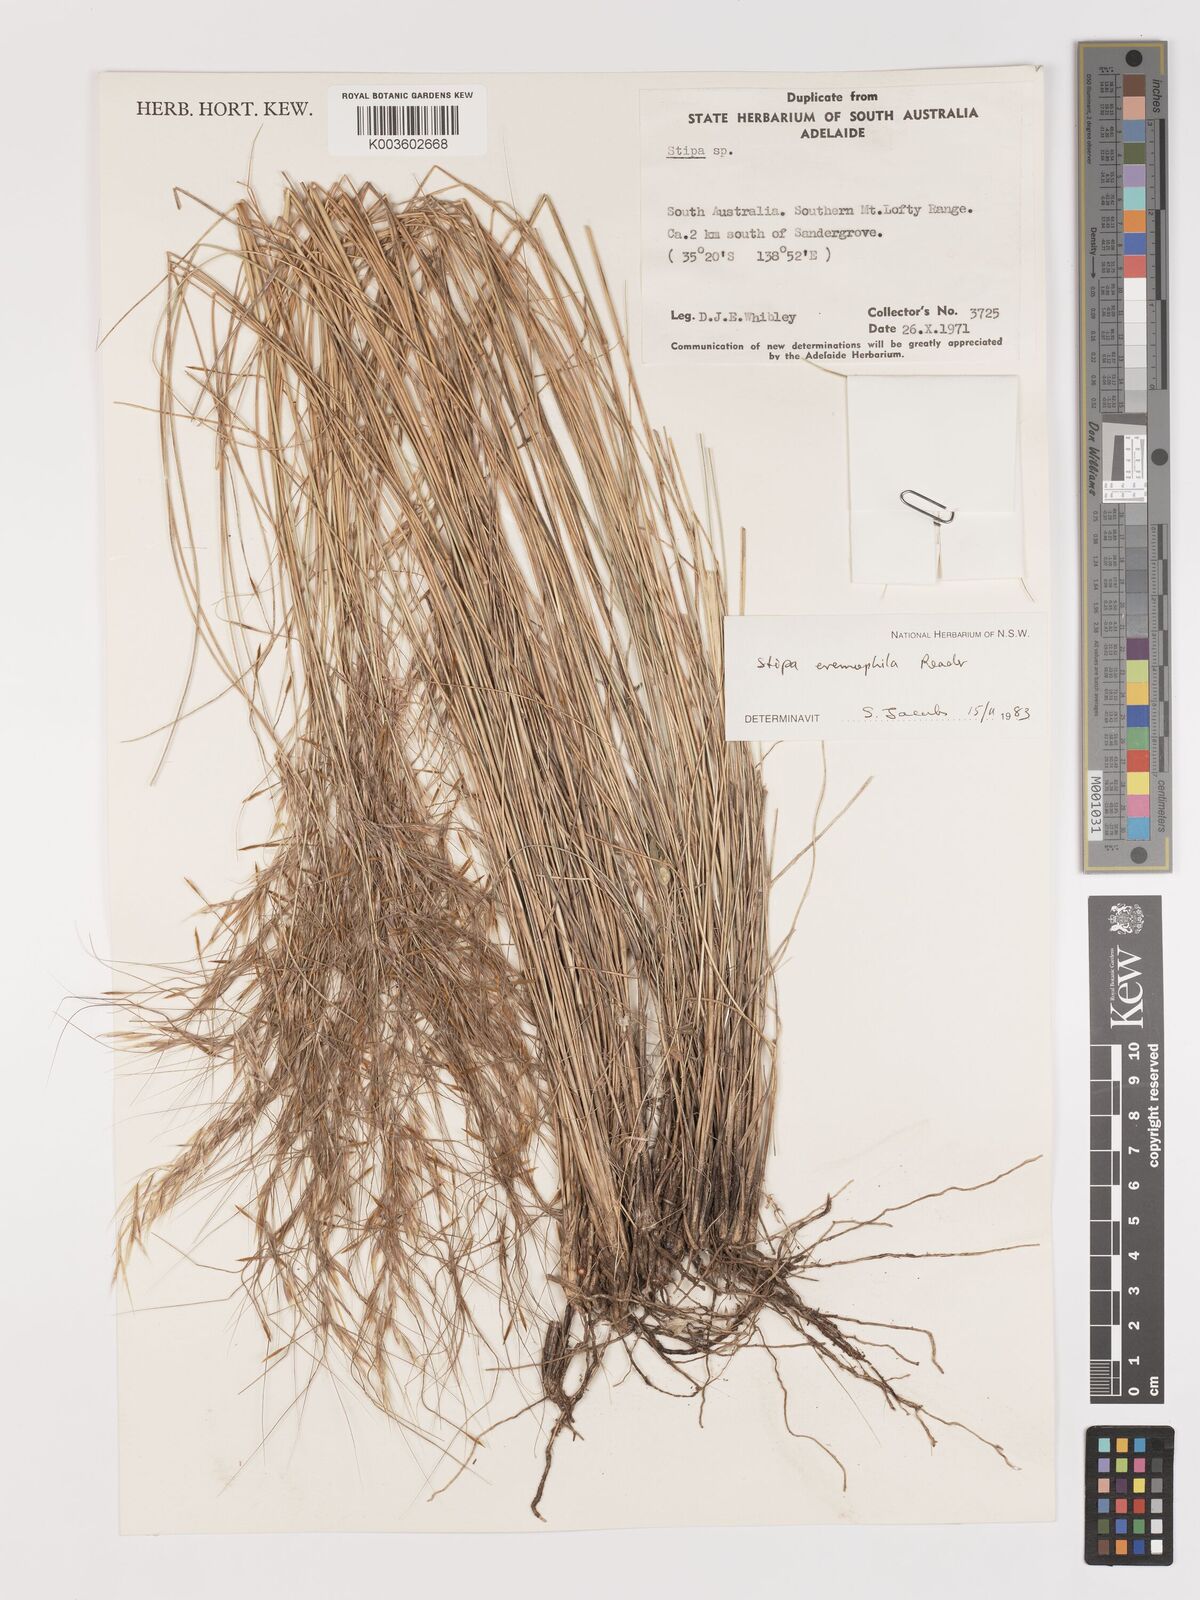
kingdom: Plantae
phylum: Tracheophyta
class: Liliopsida
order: Poales
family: Poaceae
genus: Austrostipa
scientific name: Austrostipa eremophila
